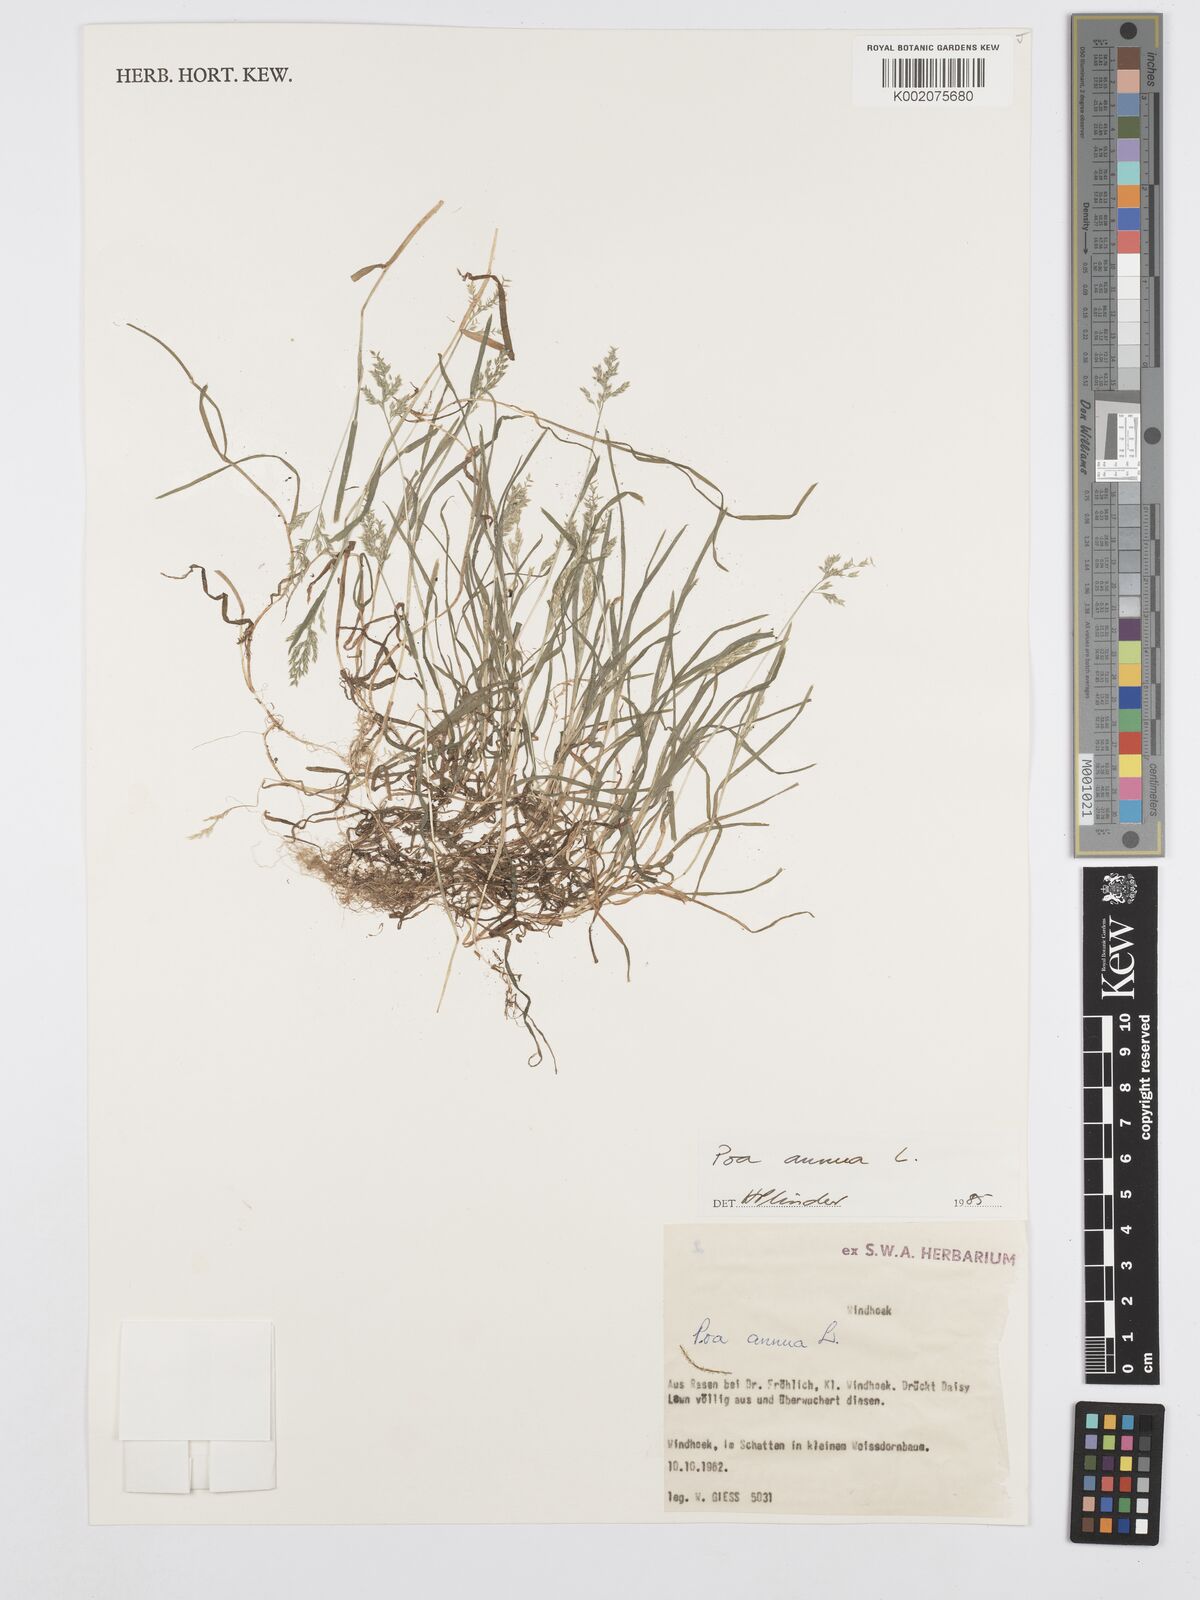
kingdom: Plantae
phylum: Tracheophyta
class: Liliopsida
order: Poales
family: Poaceae
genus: Poa
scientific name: Poa annua
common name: Annual bluegrass
